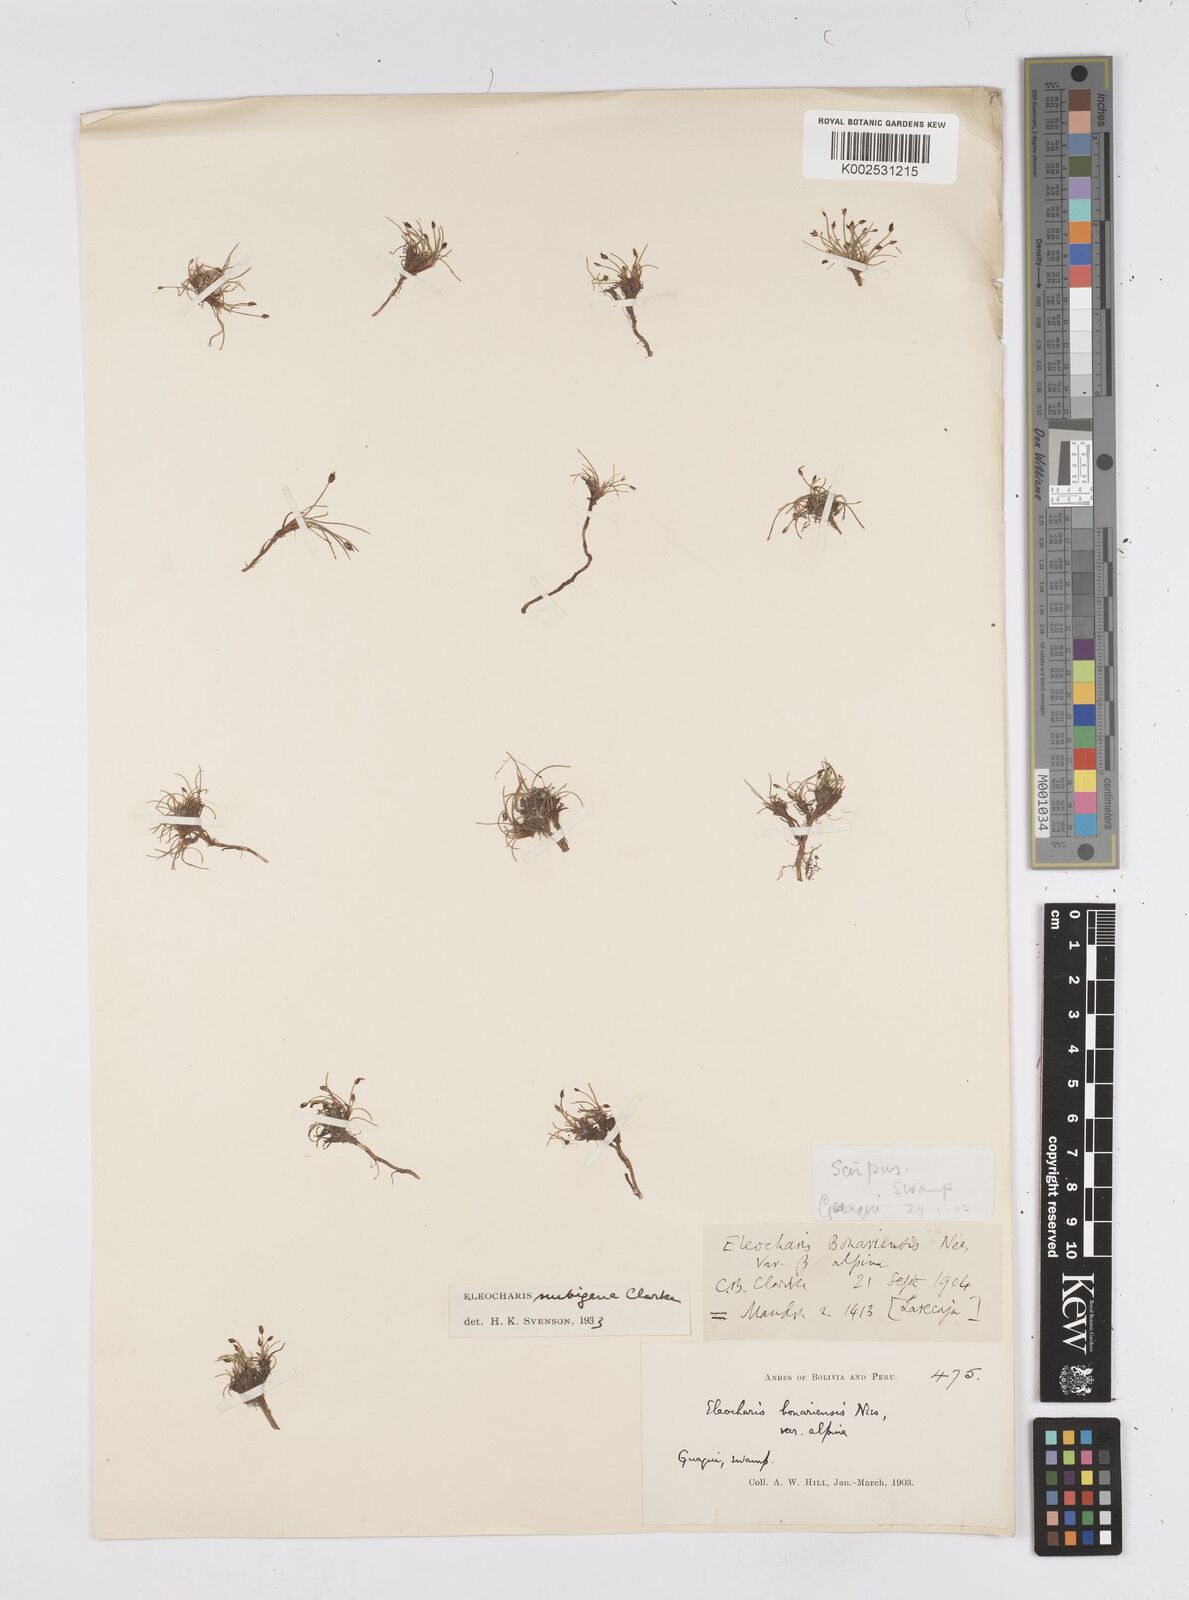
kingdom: Plantae
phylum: Tracheophyta
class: Liliopsida
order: Poales
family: Cyperaceae
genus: Eleocharis
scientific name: Eleocharis albibracteata
